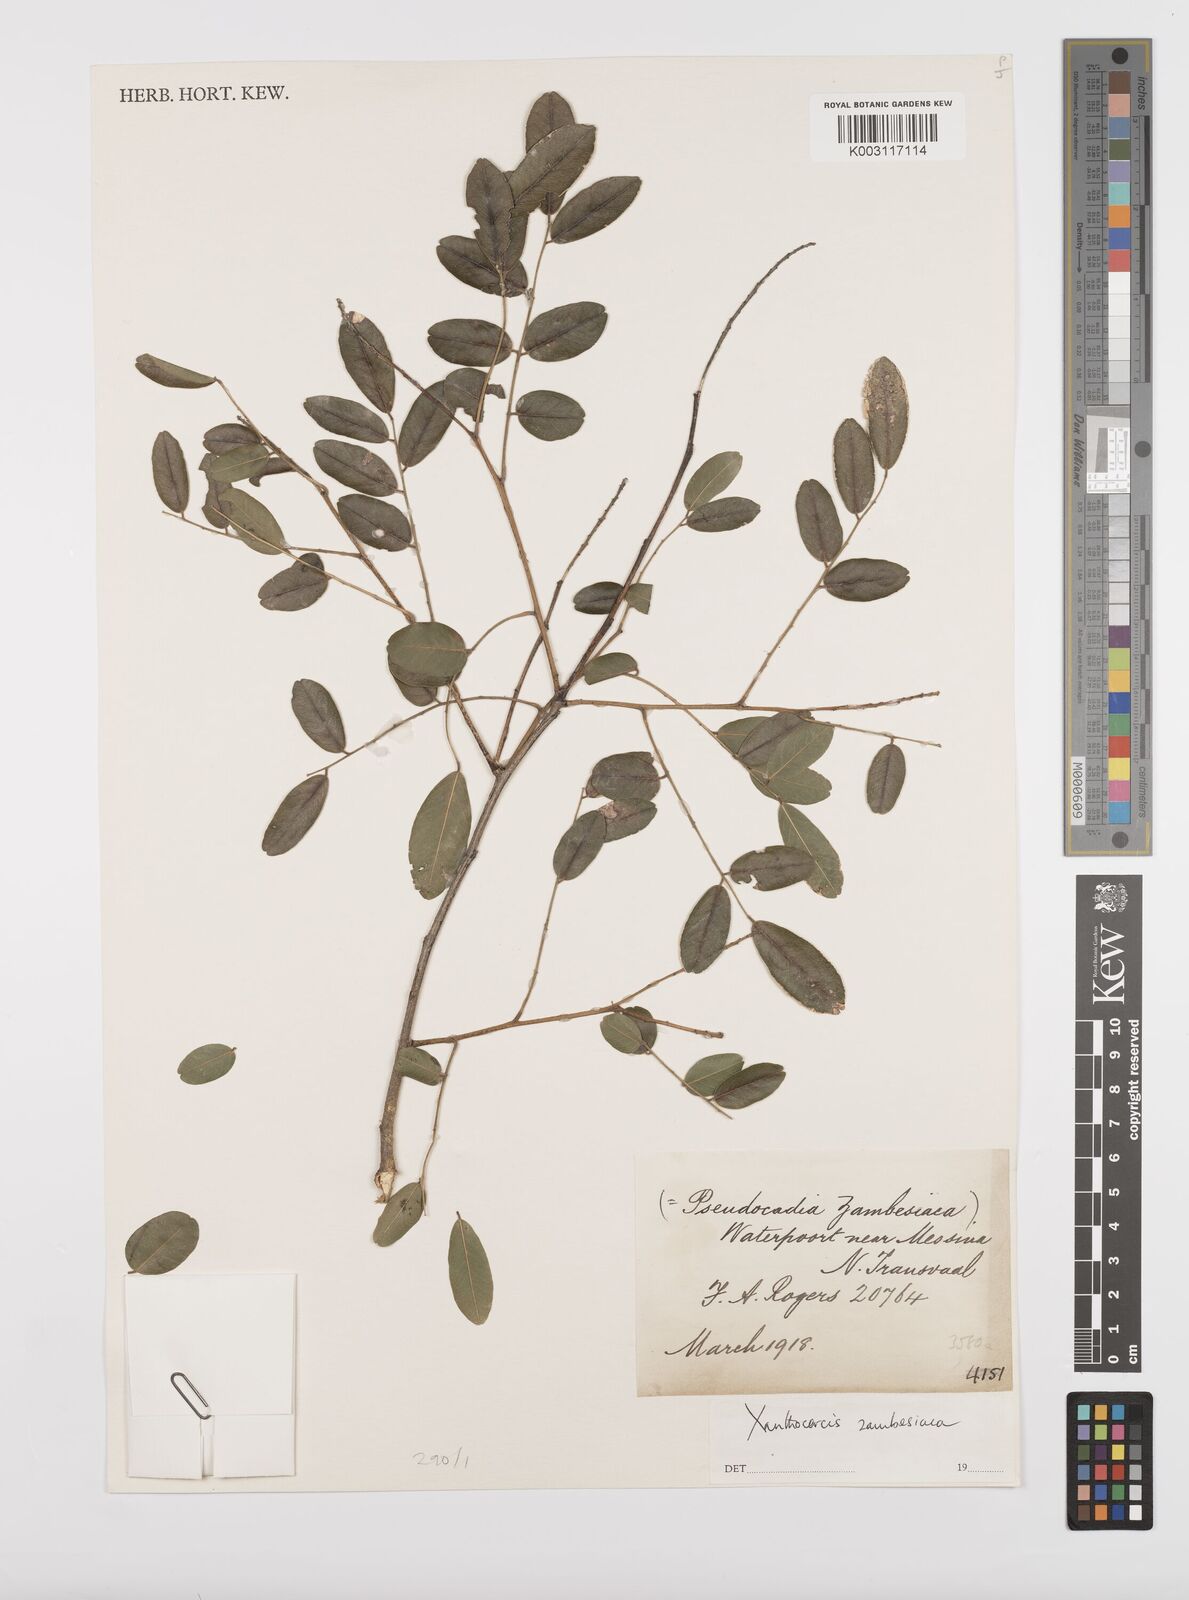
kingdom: Plantae
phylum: Tracheophyta
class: Magnoliopsida
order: Fabales
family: Fabaceae
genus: Xanthocercis
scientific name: Xanthocercis zambesiaca
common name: Nyala-tree
